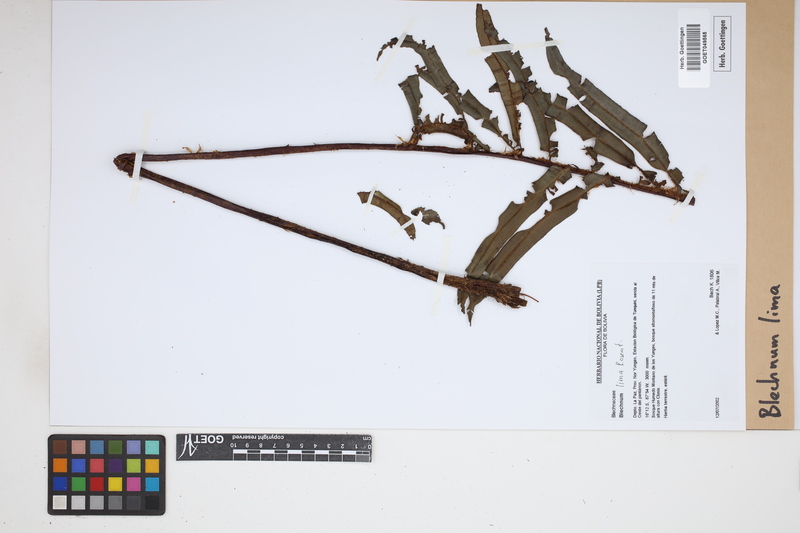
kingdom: Plantae
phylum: Tracheophyta
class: Polypodiopsida
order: Polypodiales
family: Blechnaceae
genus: Parablechnum
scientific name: Parablechnum lima
